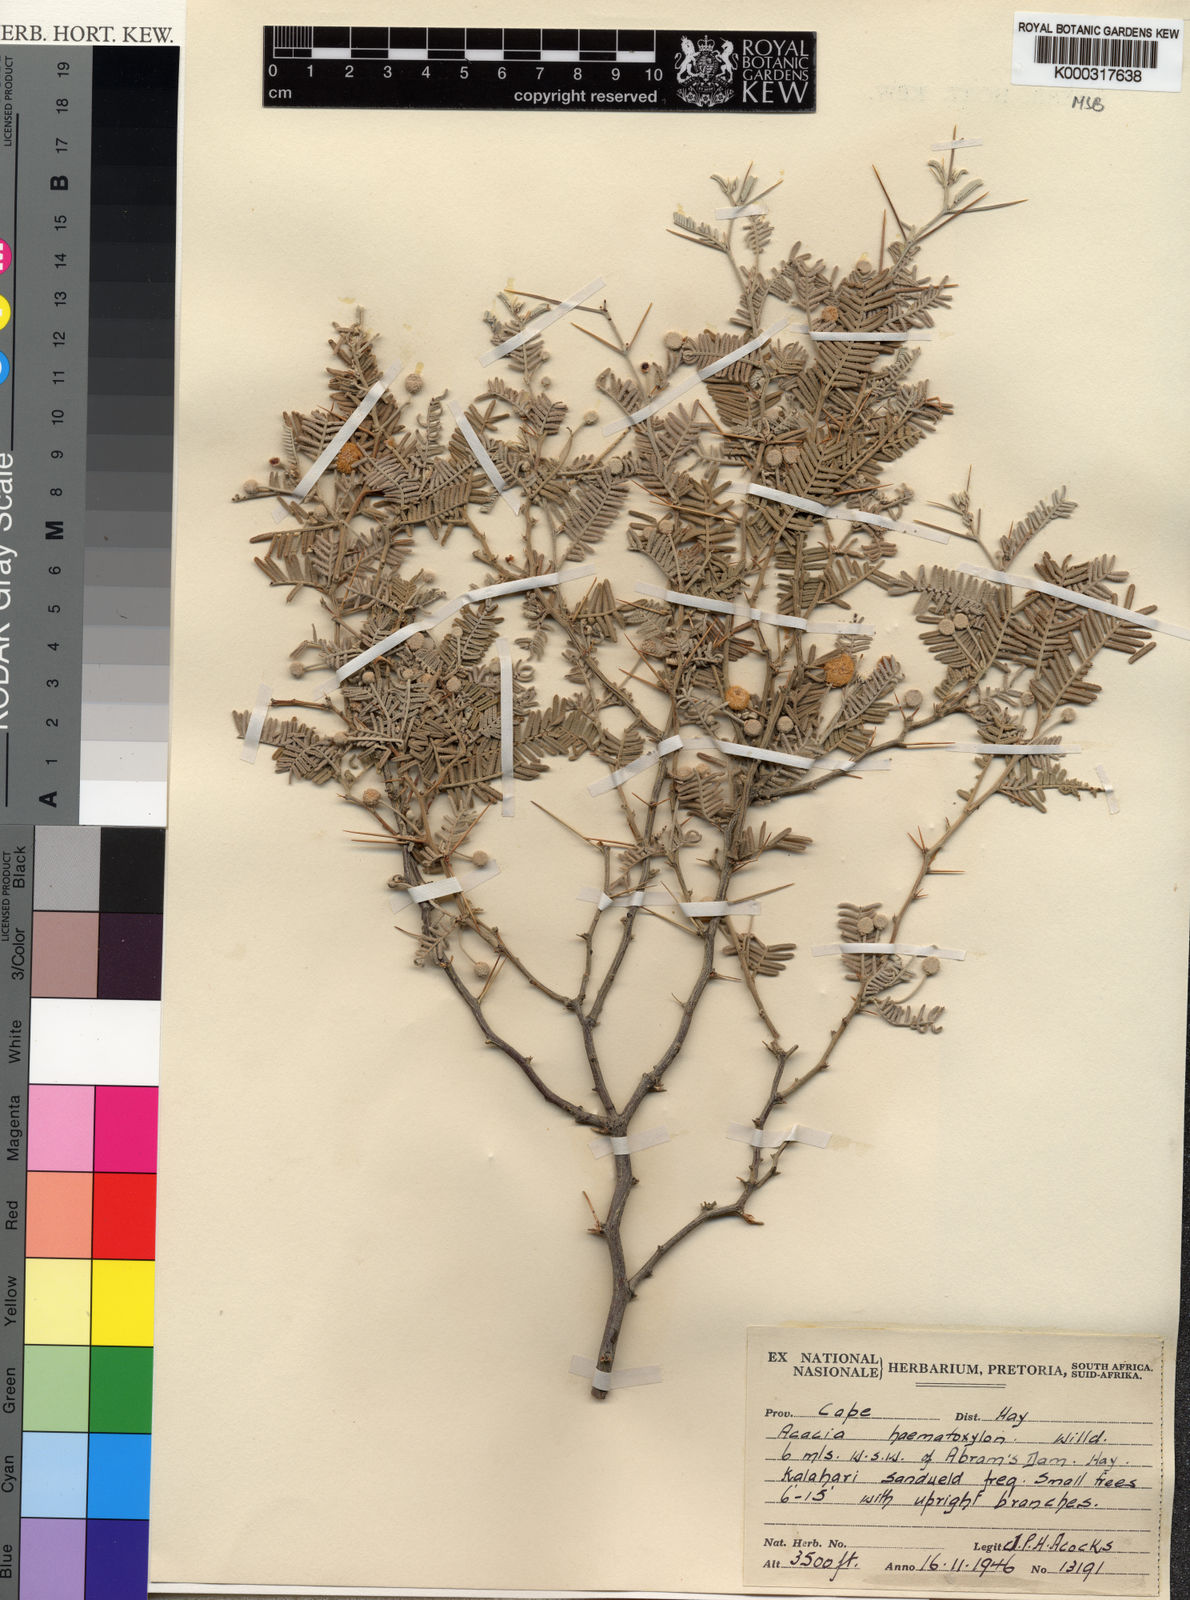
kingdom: Plantae
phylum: Tracheophyta
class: Magnoliopsida
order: Fabales
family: Fabaceae
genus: Vachellia
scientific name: Vachellia haematoxylon
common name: Grey camel thorn
